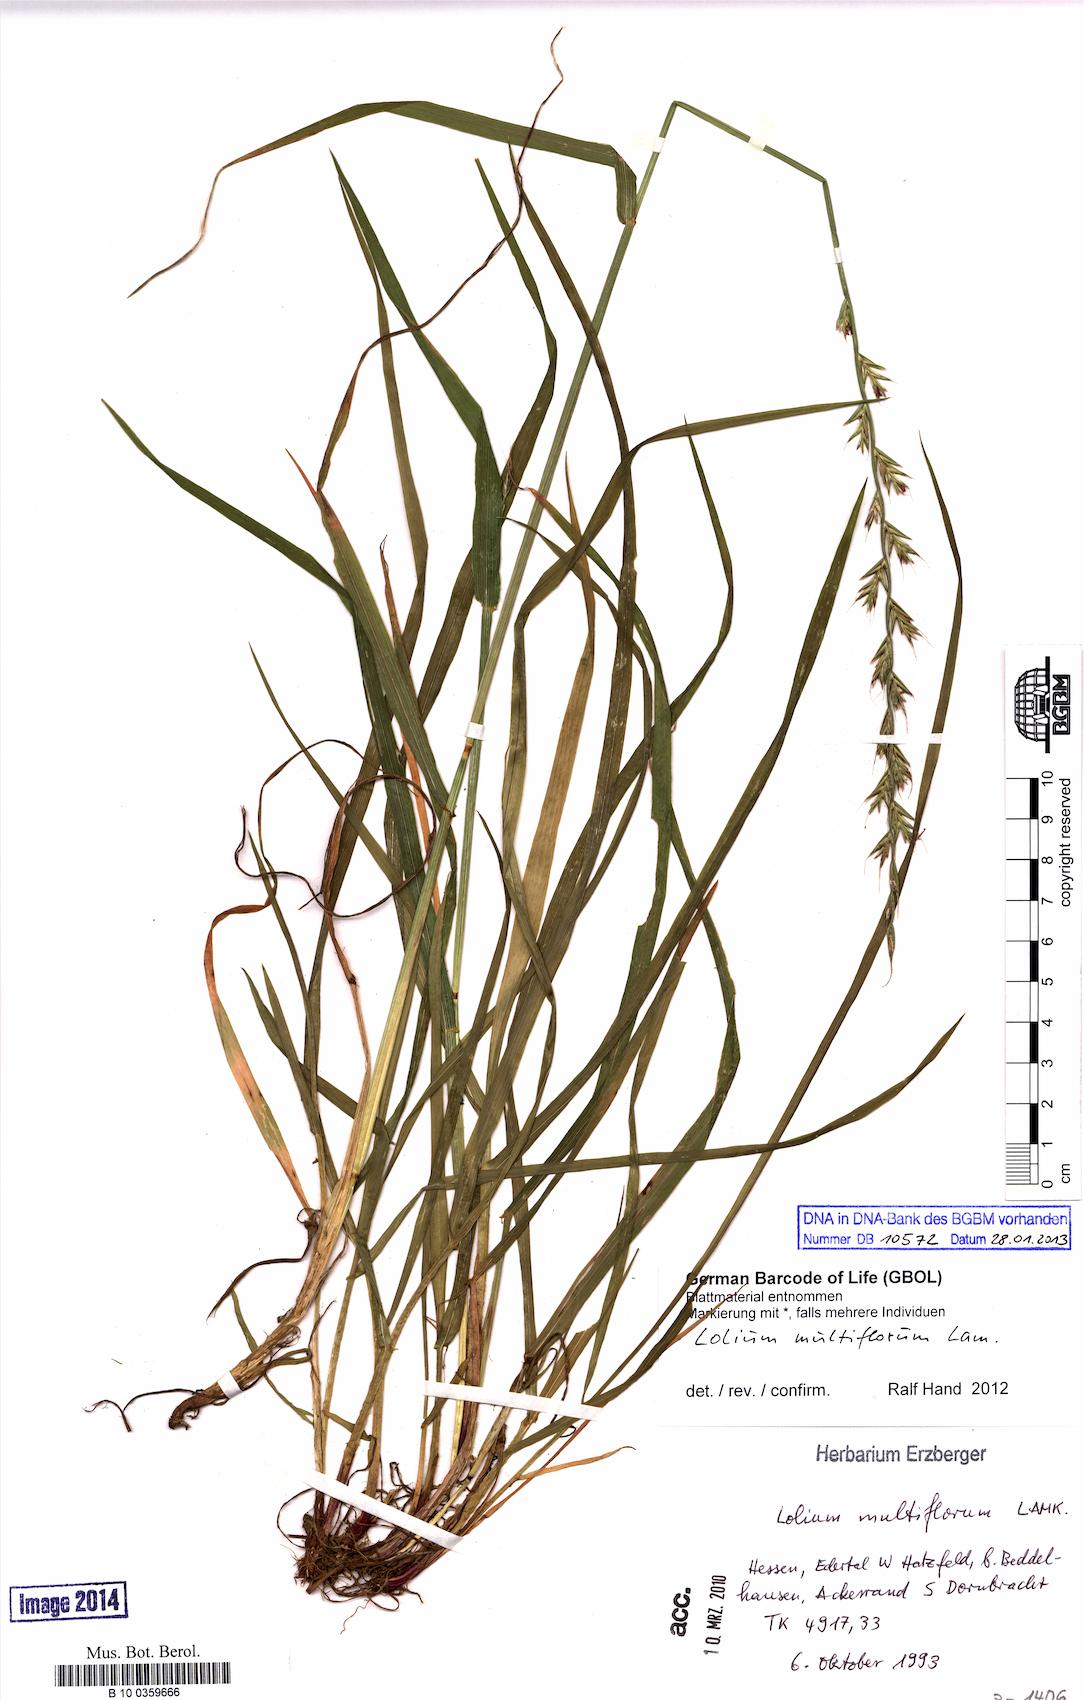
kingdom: Plantae
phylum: Tracheophyta
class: Liliopsida
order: Poales
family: Poaceae
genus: Lolium
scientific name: Lolium multiflorum
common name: Annual ryegrass
